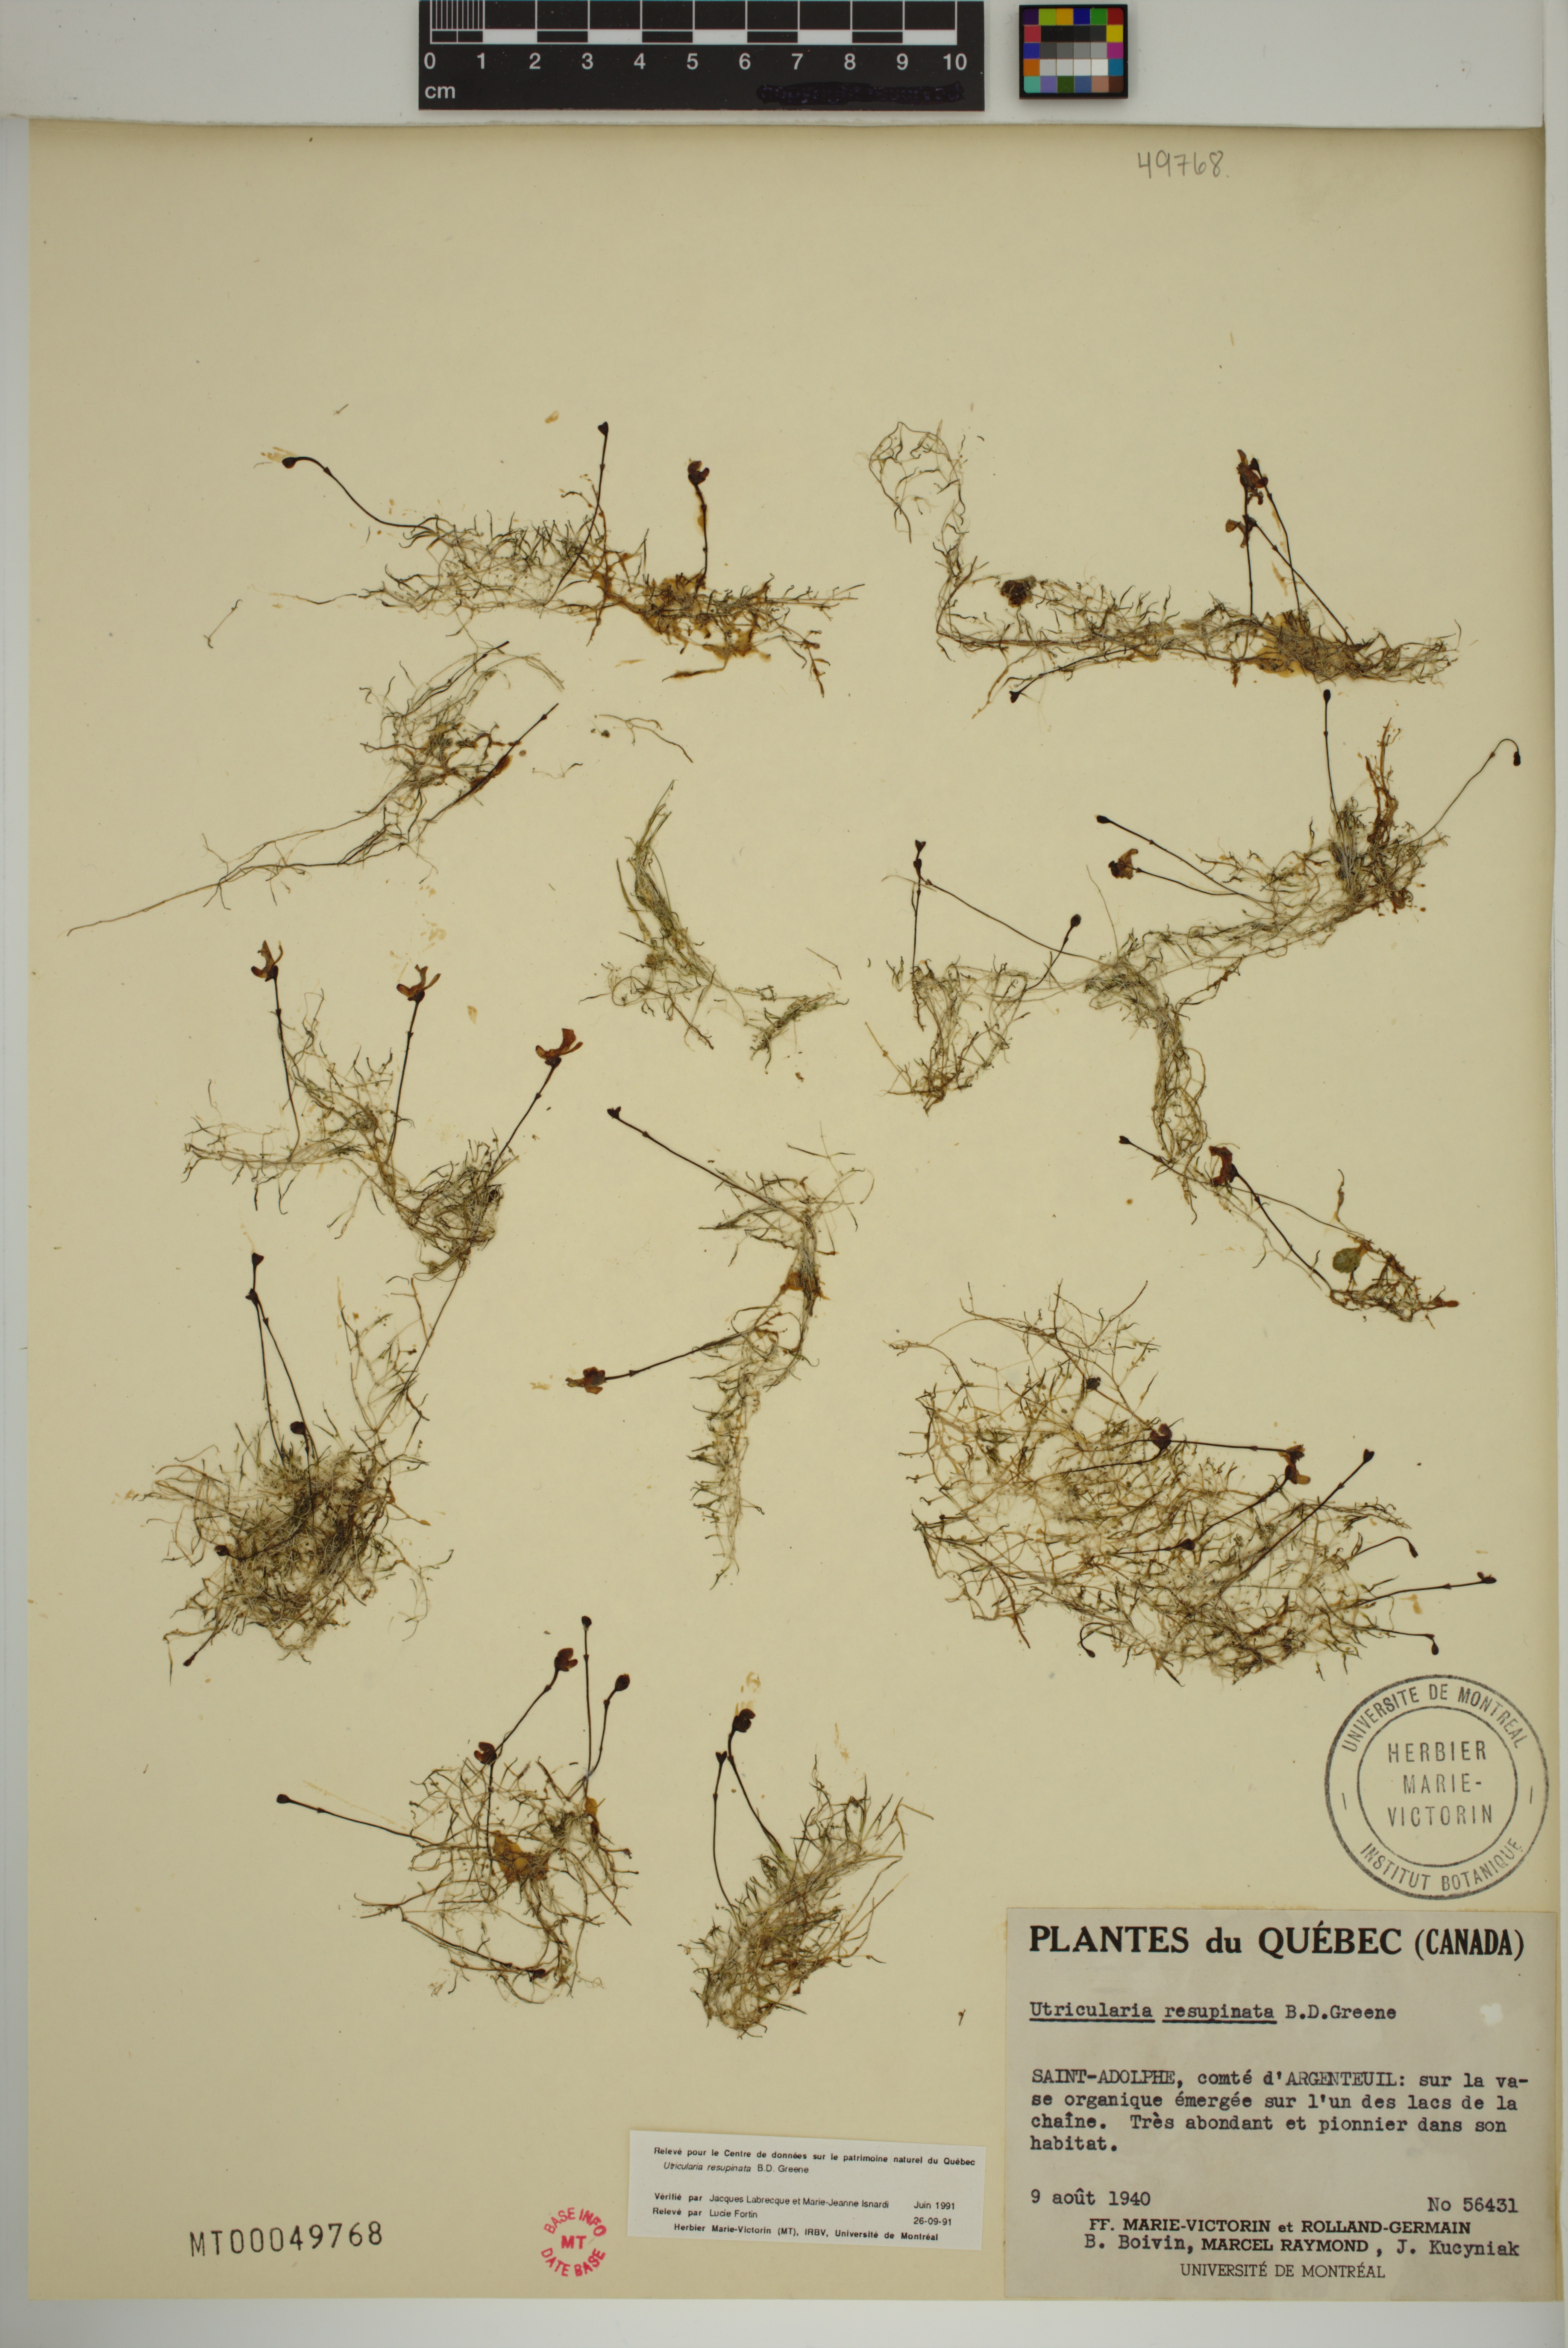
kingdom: Plantae
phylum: Tracheophyta
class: Magnoliopsida
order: Lamiales
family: Lentibulariaceae
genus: Utricularia
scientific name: Utricularia resupinata
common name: Northeastern bladderwort
